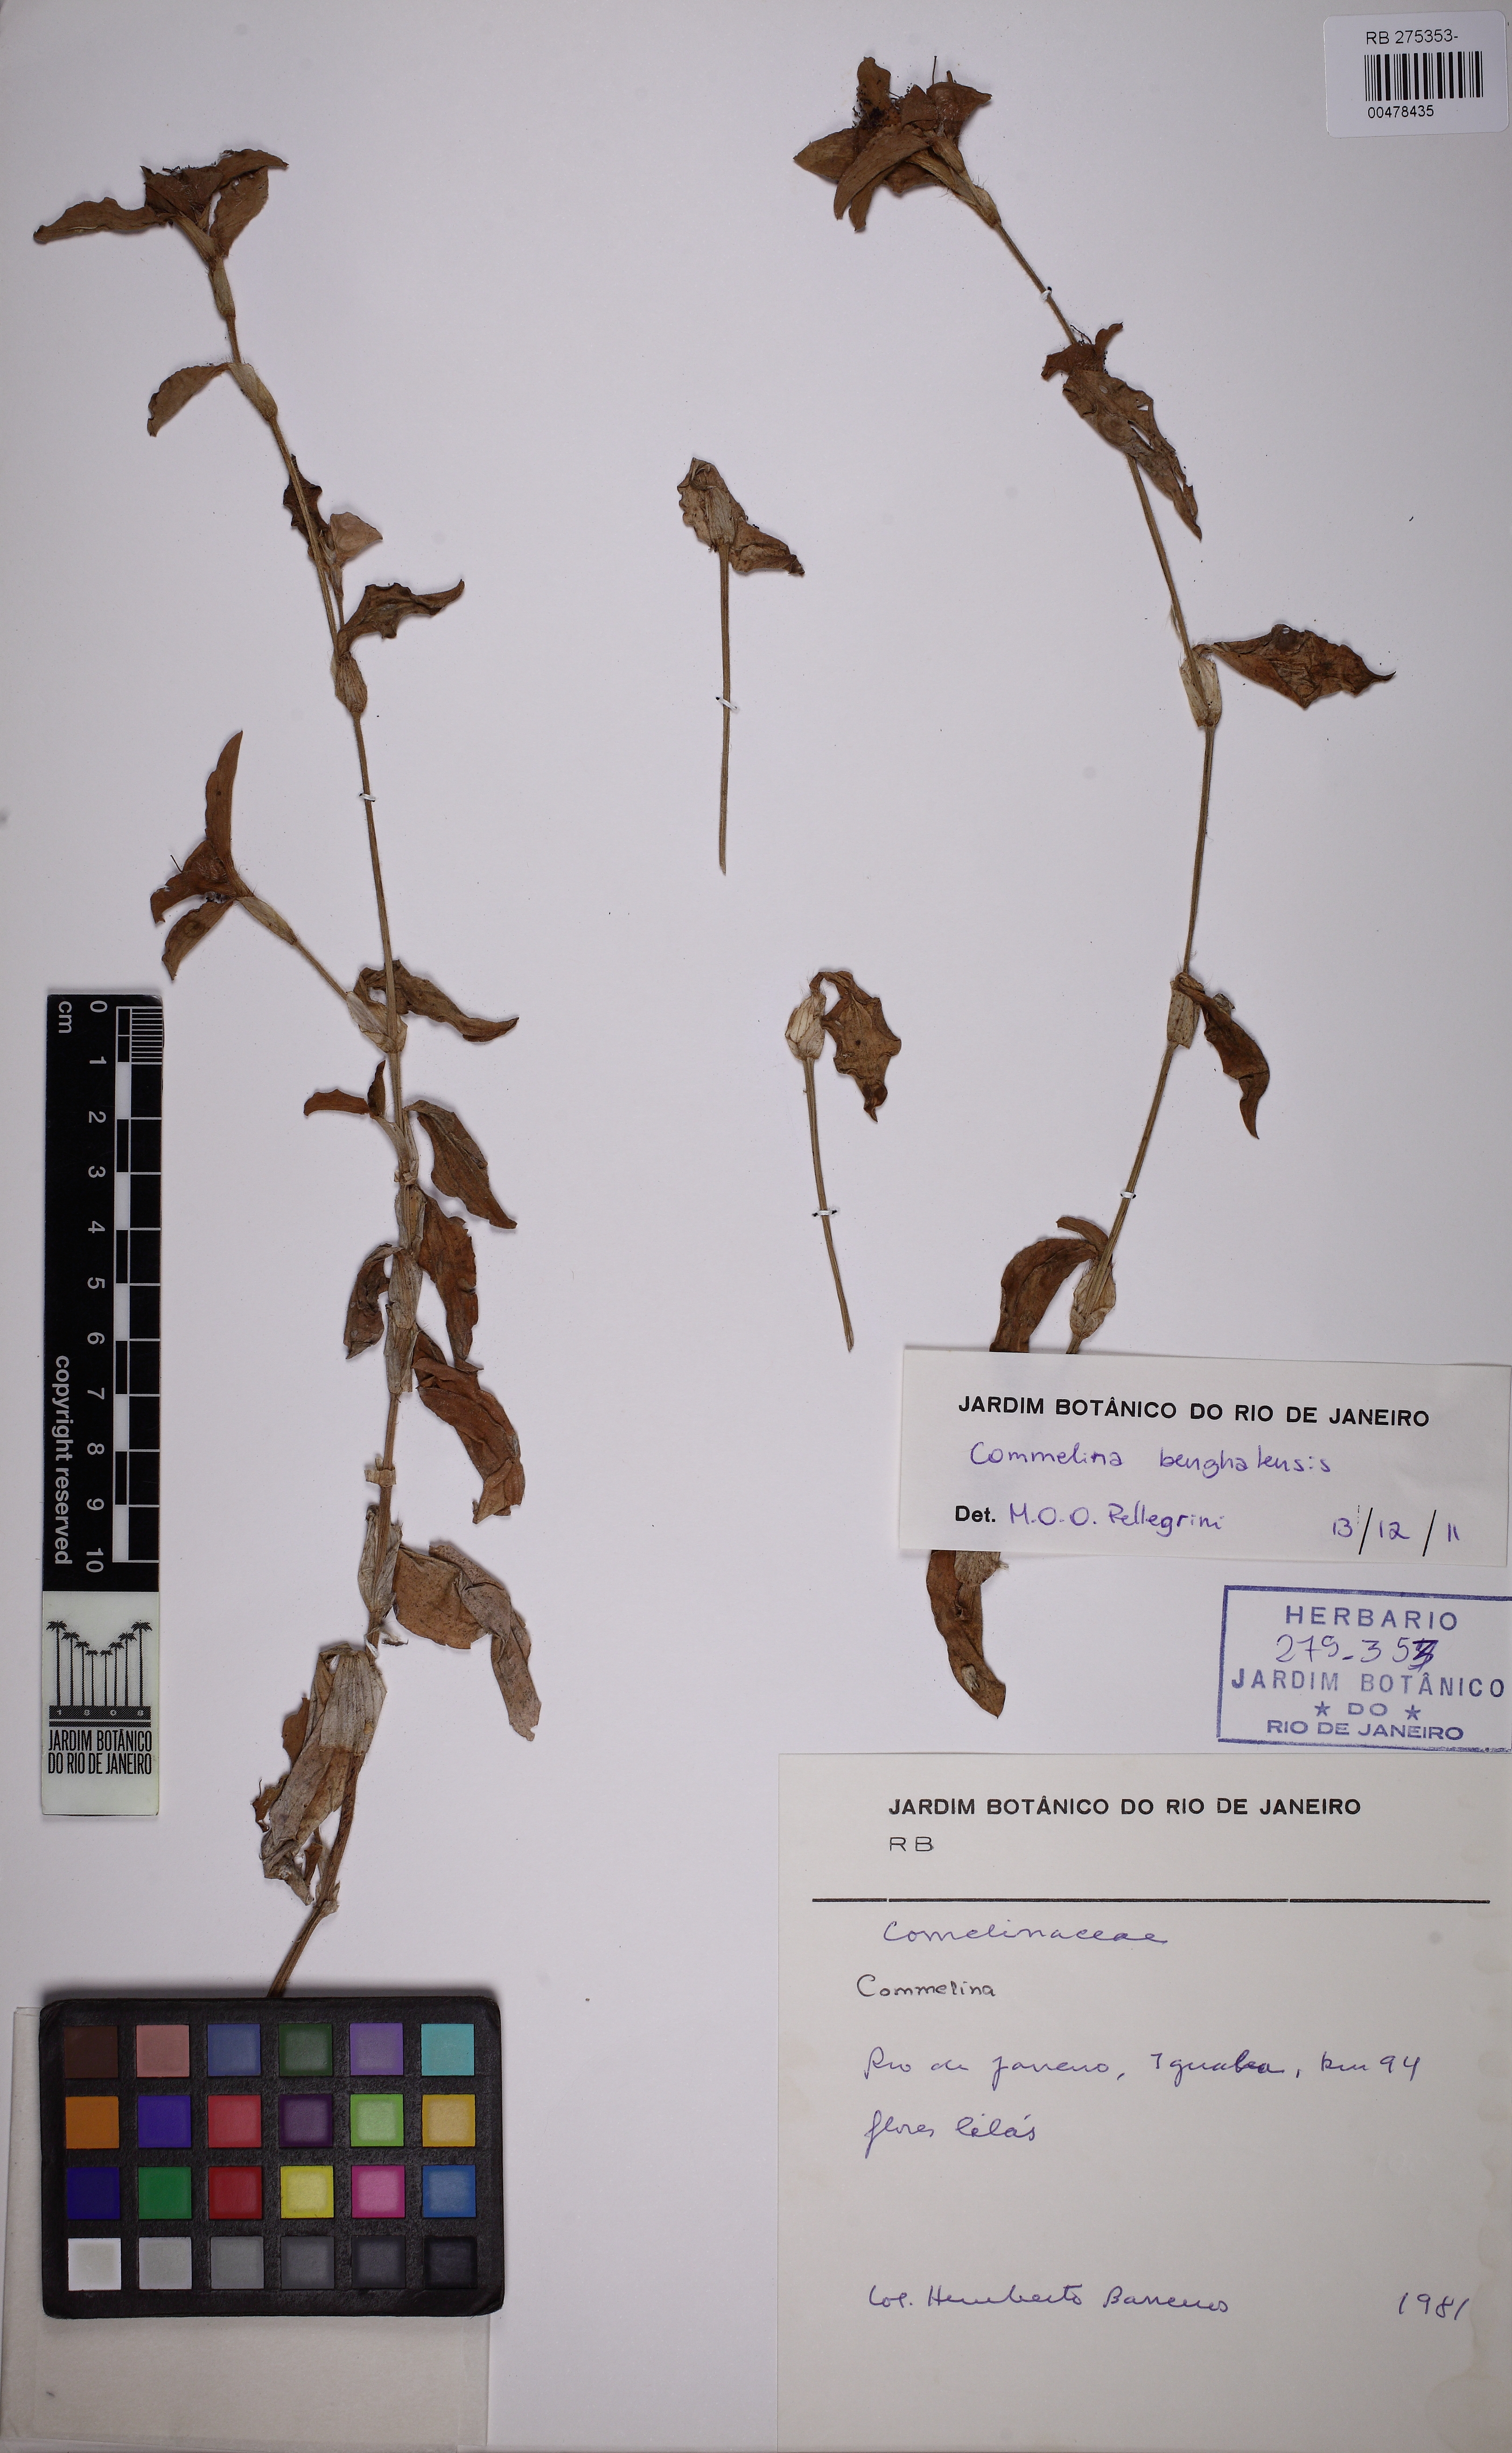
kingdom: Plantae
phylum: Tracheophyta
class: Liliopsida
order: Commelinales
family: Commelinaceae
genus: Commelina
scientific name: Commelina benghalensis
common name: Jio
